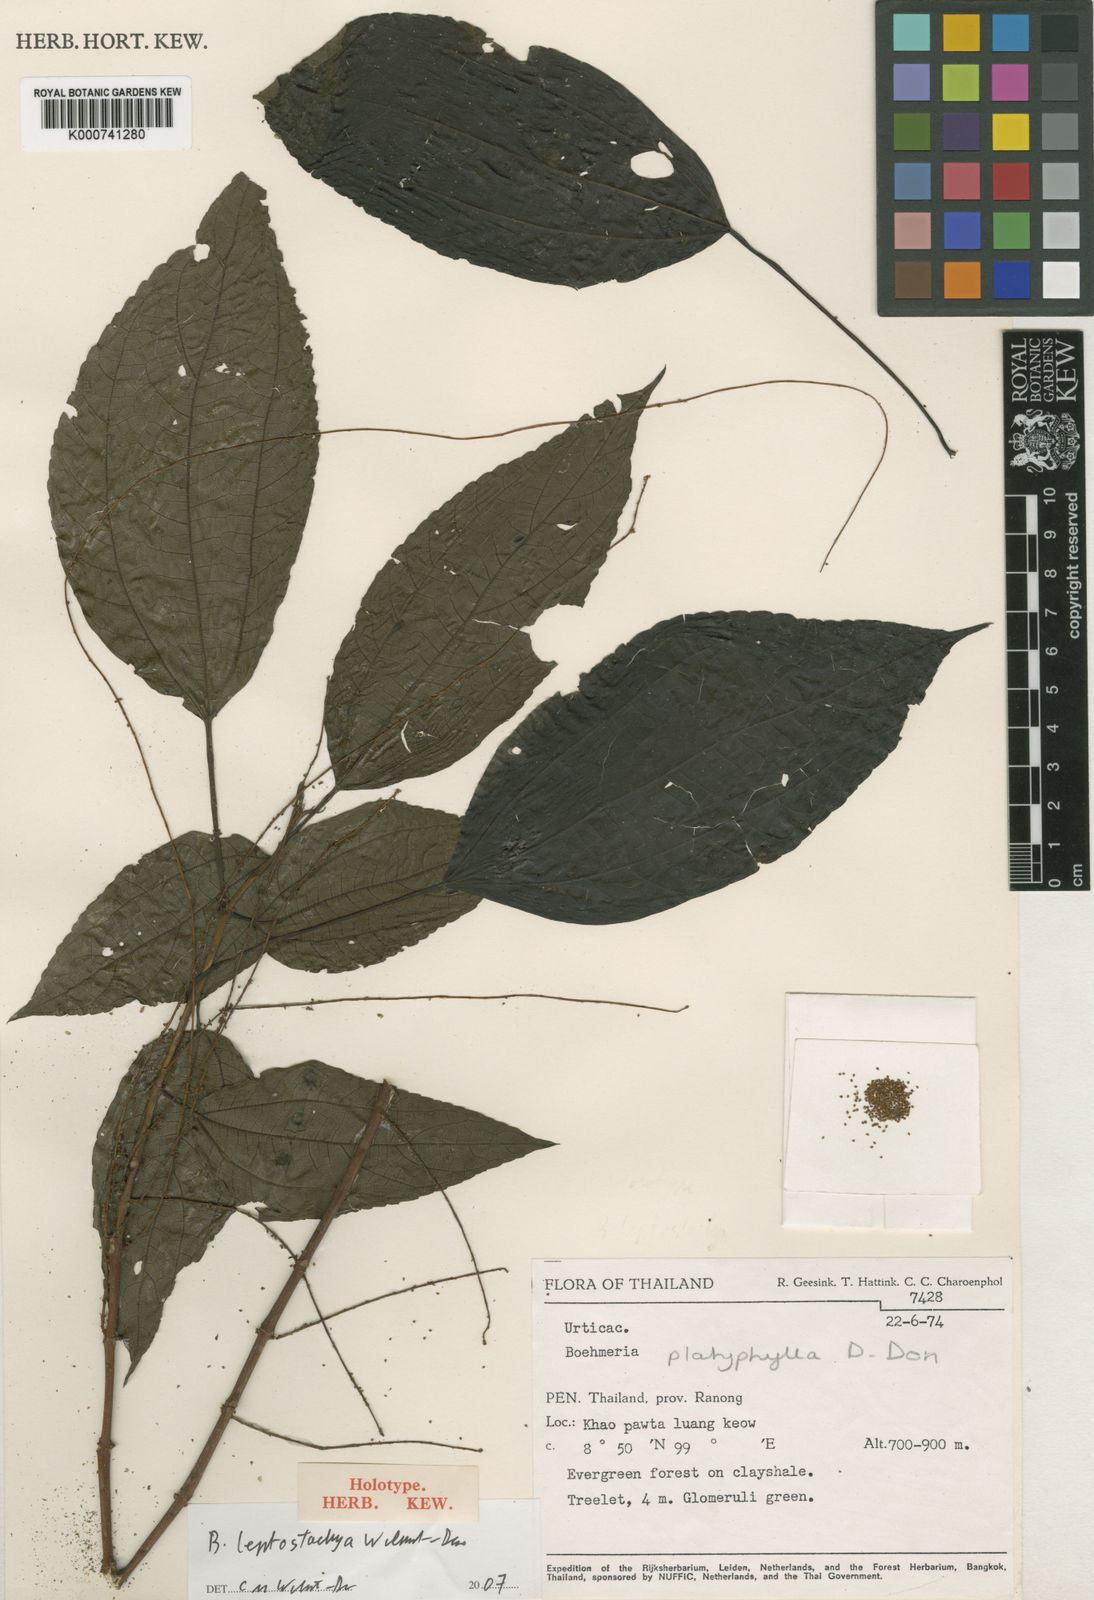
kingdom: Plantae
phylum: Tracheophyta
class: Magnoliopsida
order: Rosales
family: Urticaceae
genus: Boehmeria
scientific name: Boehmeria leptostachya
